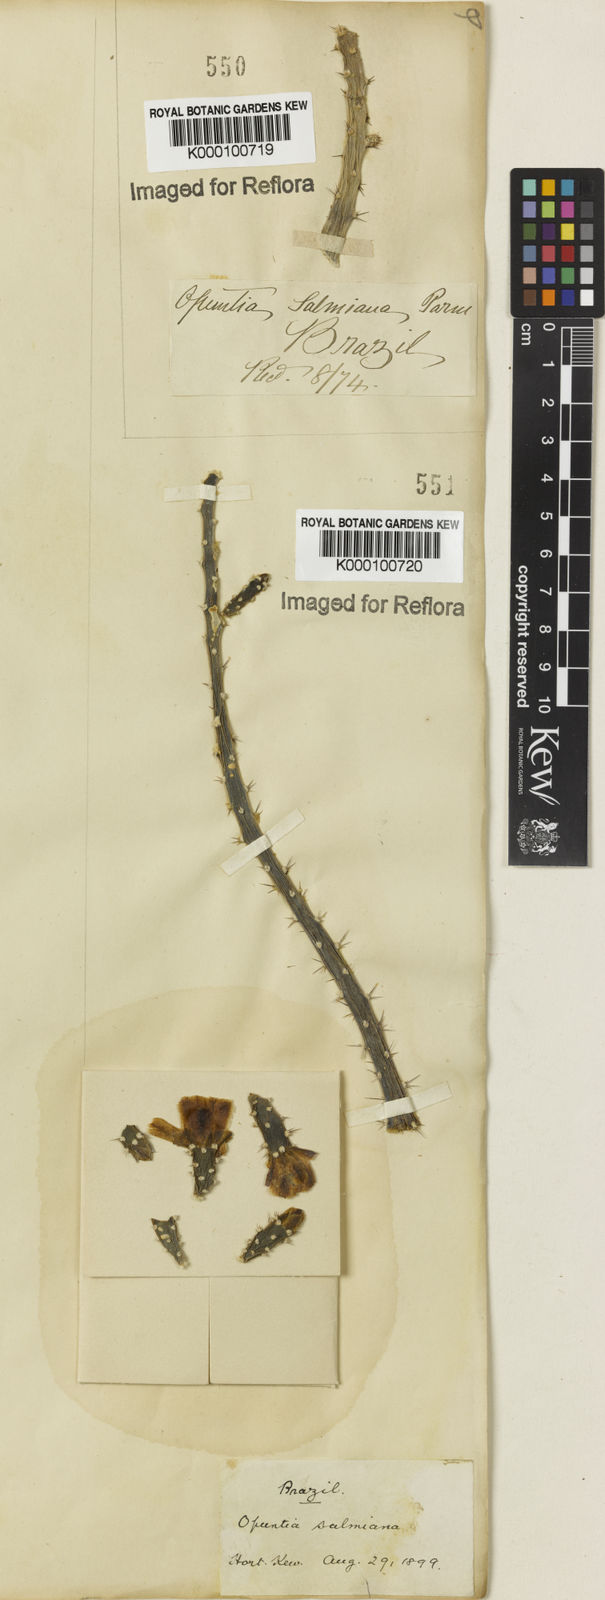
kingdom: Plantae
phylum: Tracheophyta
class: Magnoliopsida
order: Caryophyllales
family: Cactaceae
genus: Salmonopuntia
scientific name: Salmonopuntia salmiana
